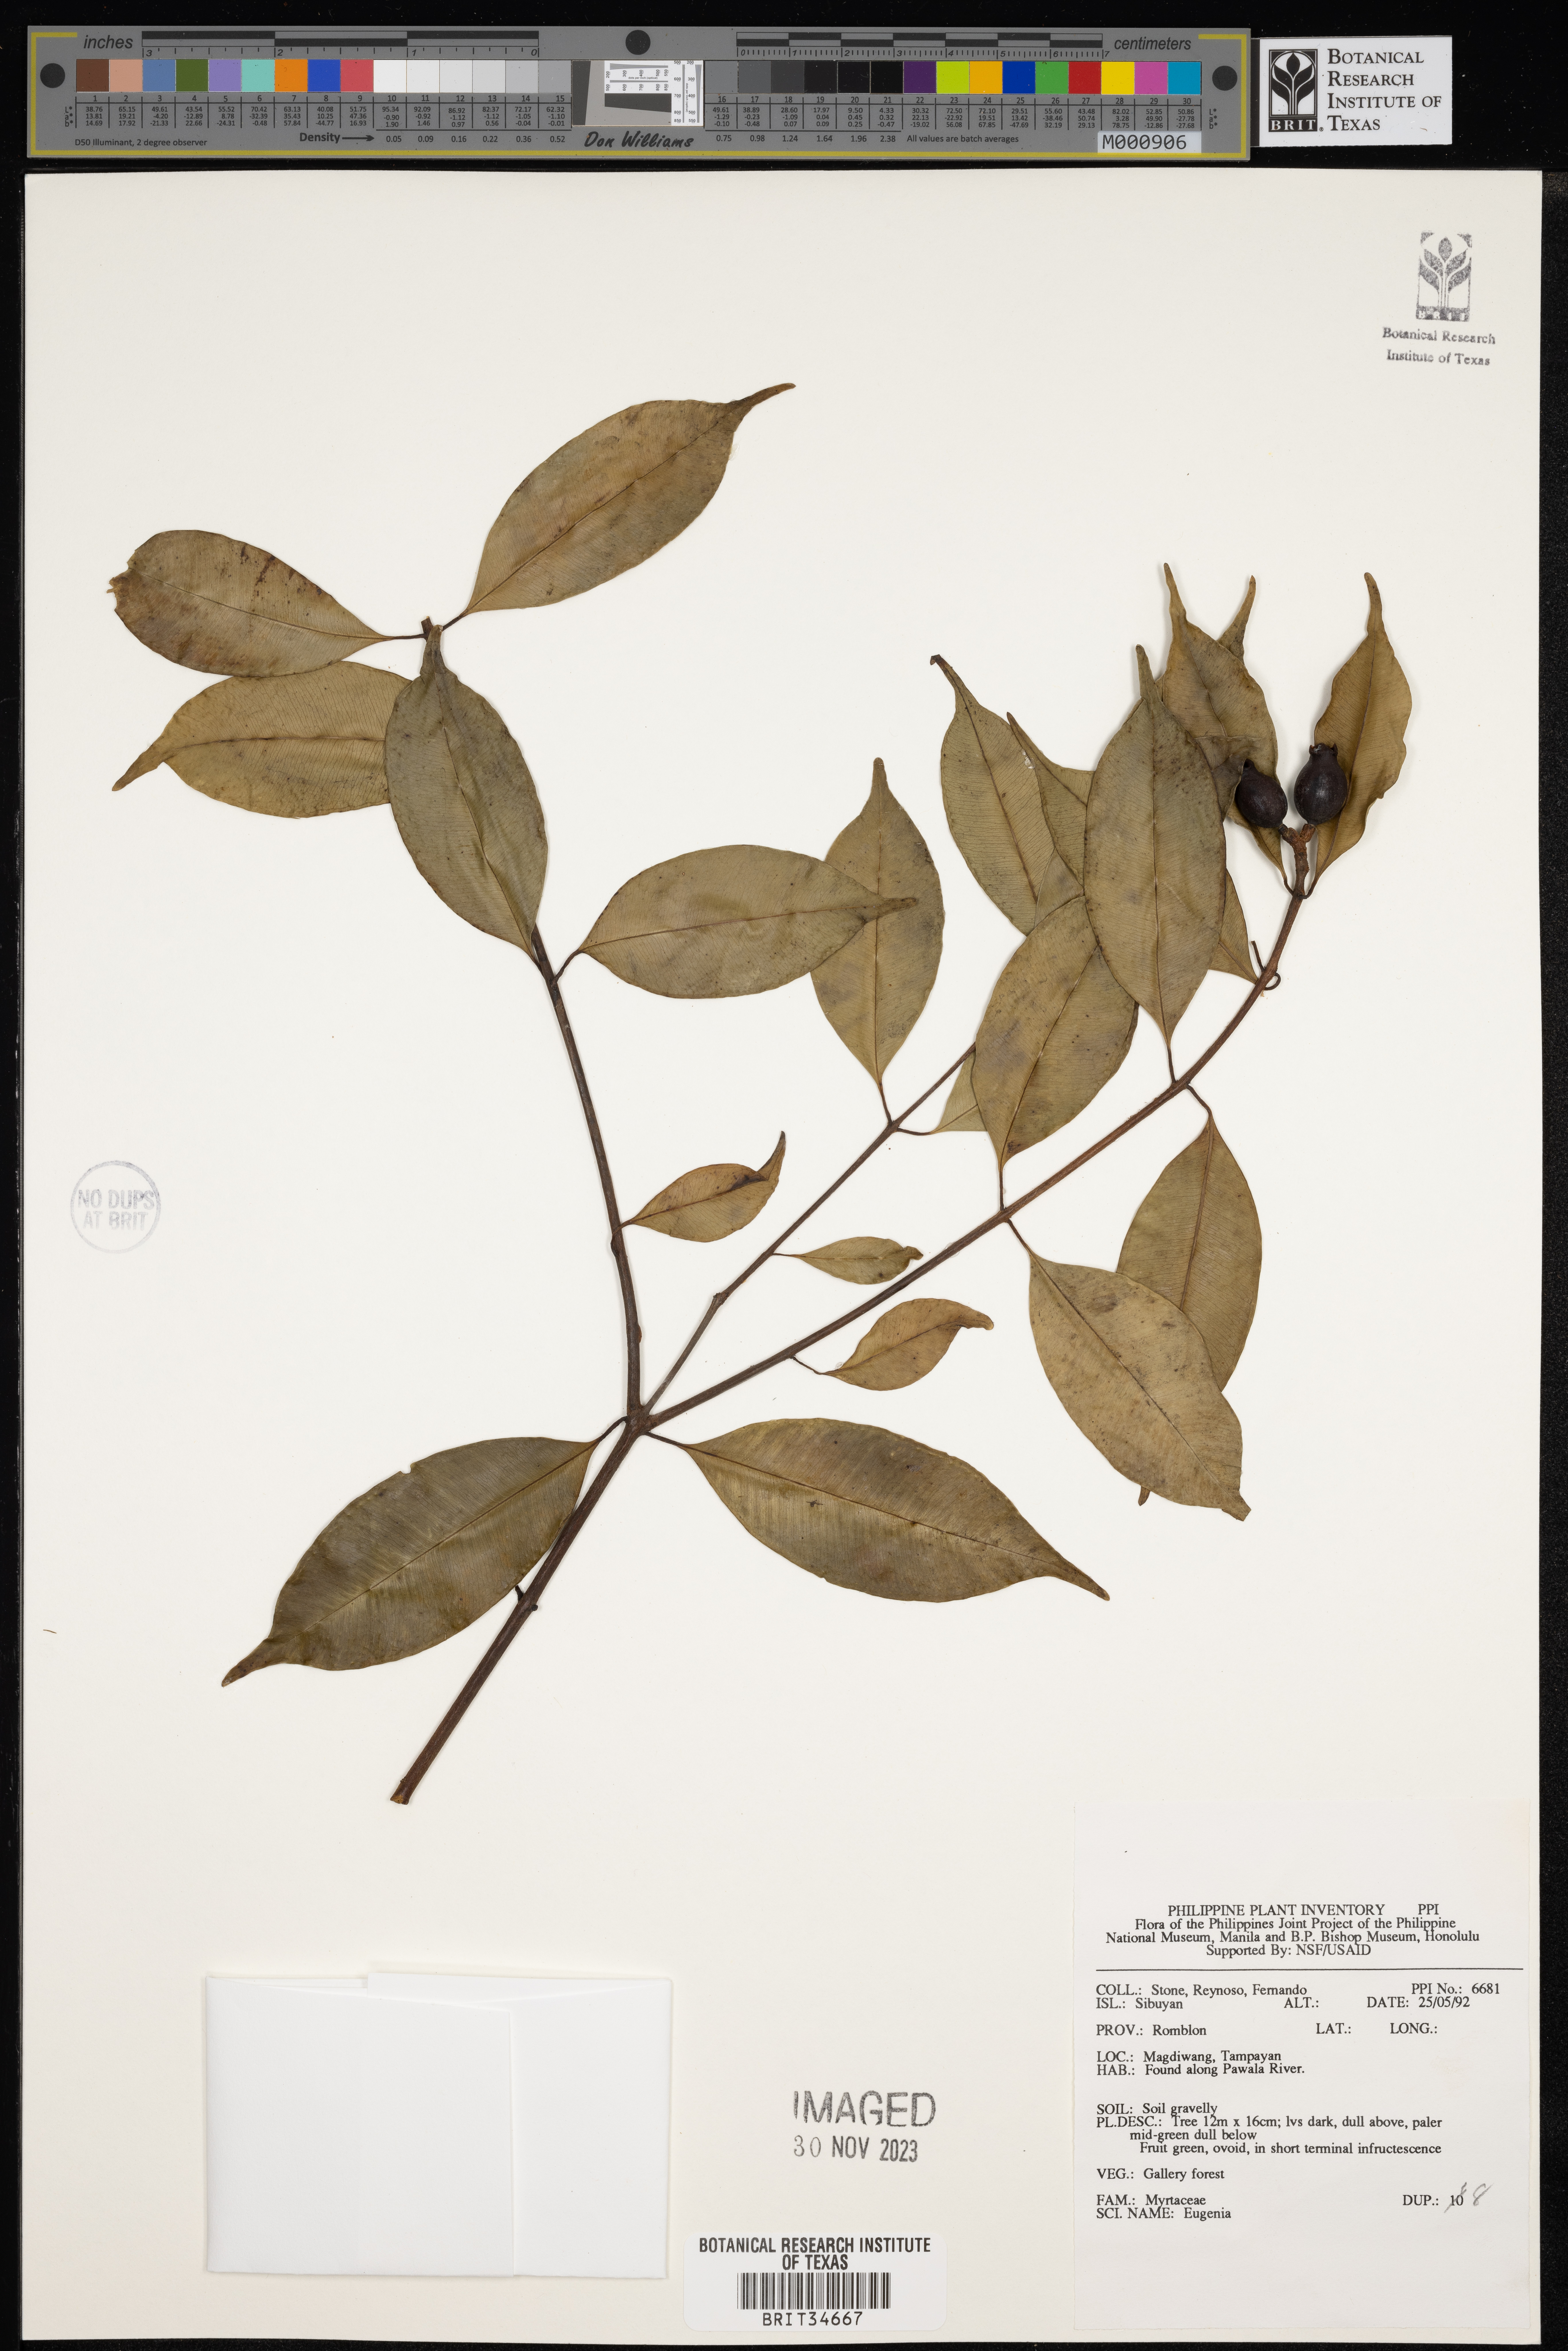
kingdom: Plantae
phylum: Tracheophyta
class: Magnoliopsida
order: Myrtales
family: Myrtaceae
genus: Eugenia
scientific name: Eugenia
